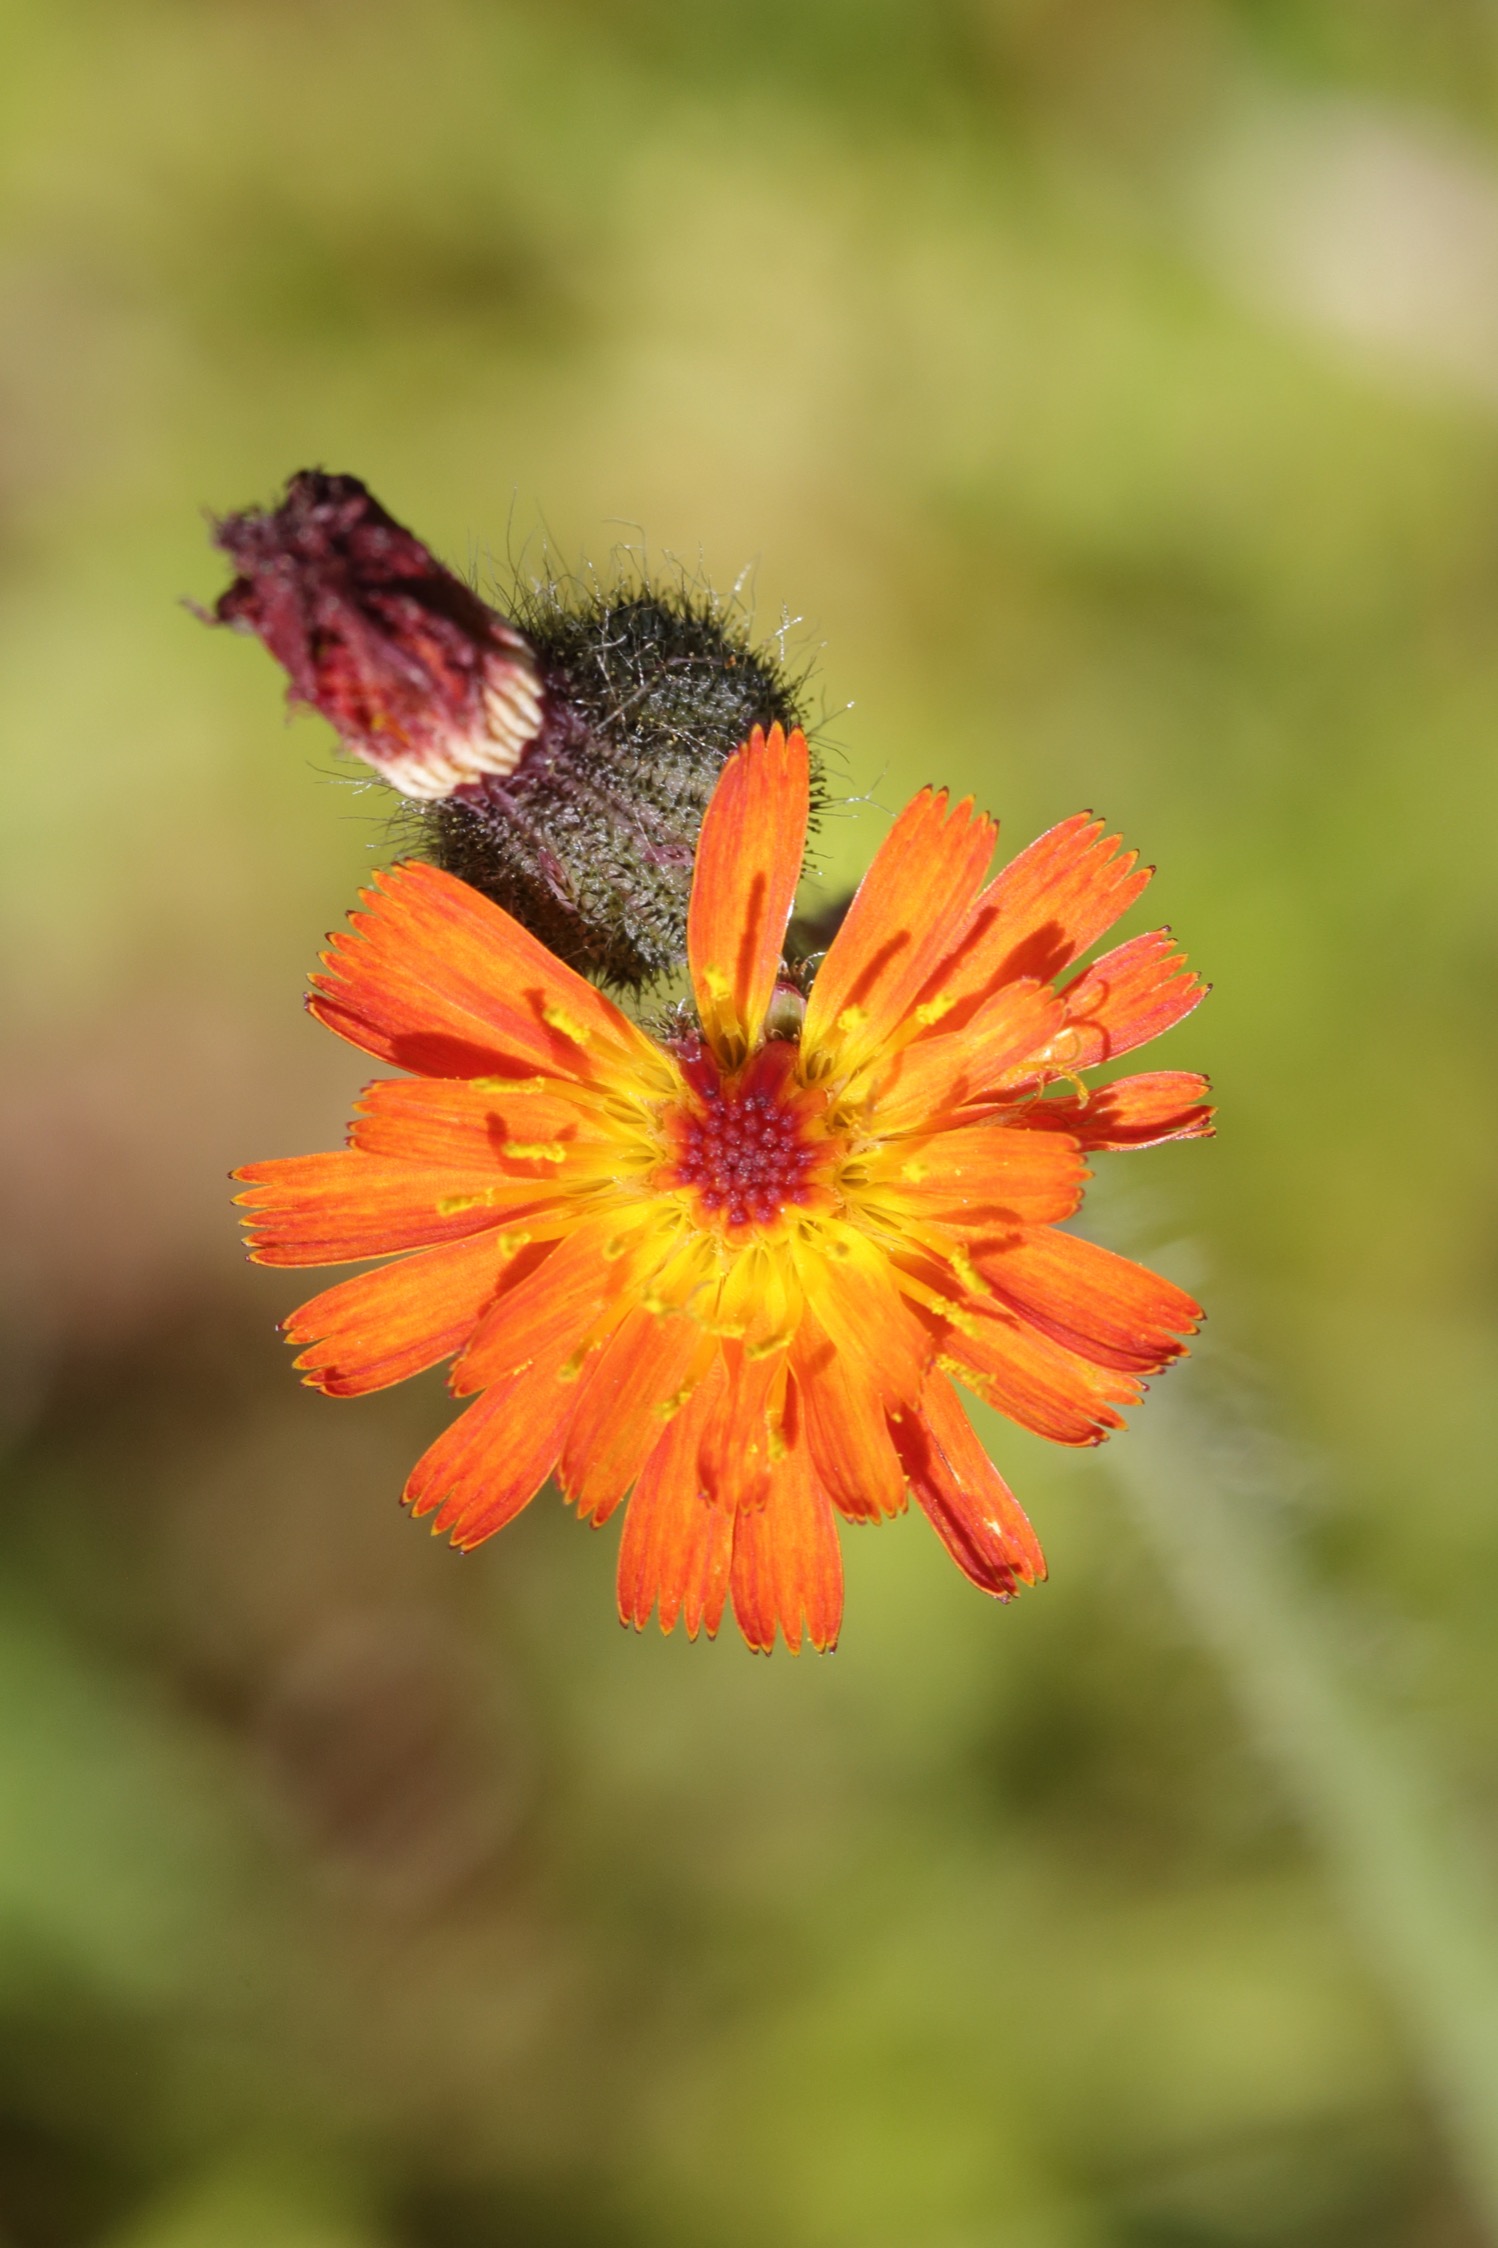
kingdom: Plantae
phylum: Tracheophyta
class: Magnoliopsida
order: Asterales
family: Asteraceae
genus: Pilosella
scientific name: Pilosella aurantiaca
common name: Pomerans-høgeurt
